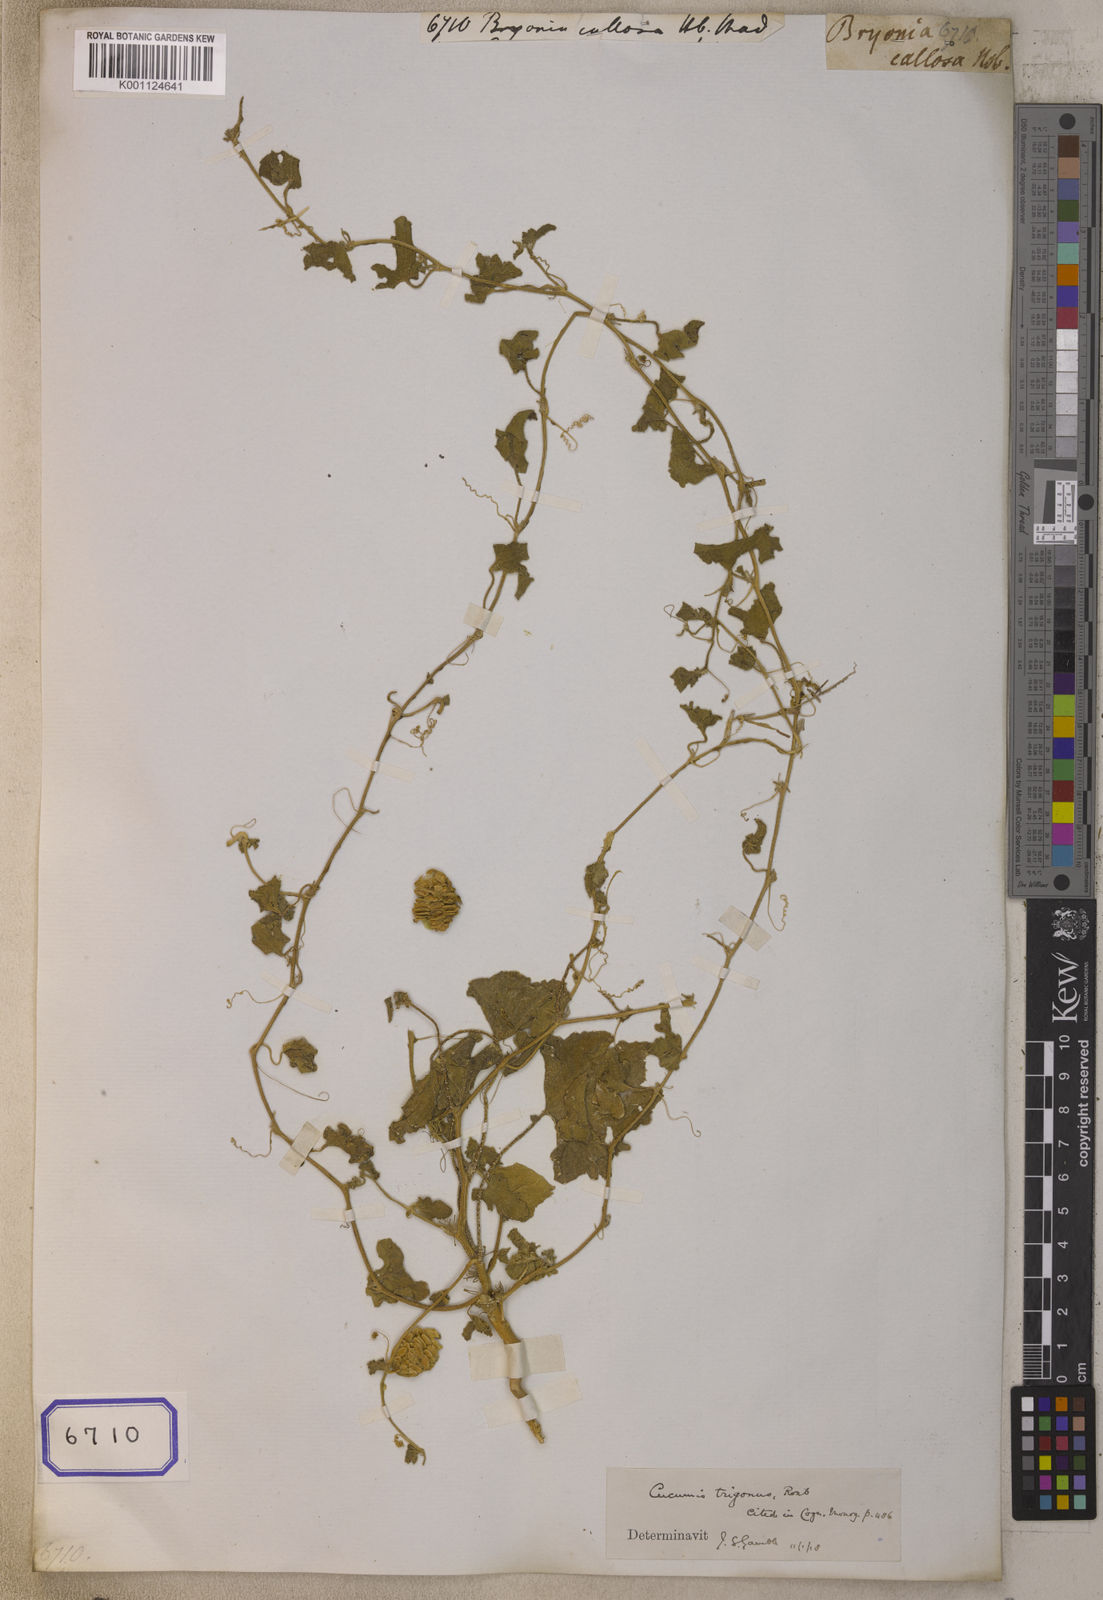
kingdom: Plantae
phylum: Tracheophyta
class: Magnoliopsida
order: Cucurbitales
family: Cucurbitaceae
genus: Bryonia
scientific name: Bryonia
